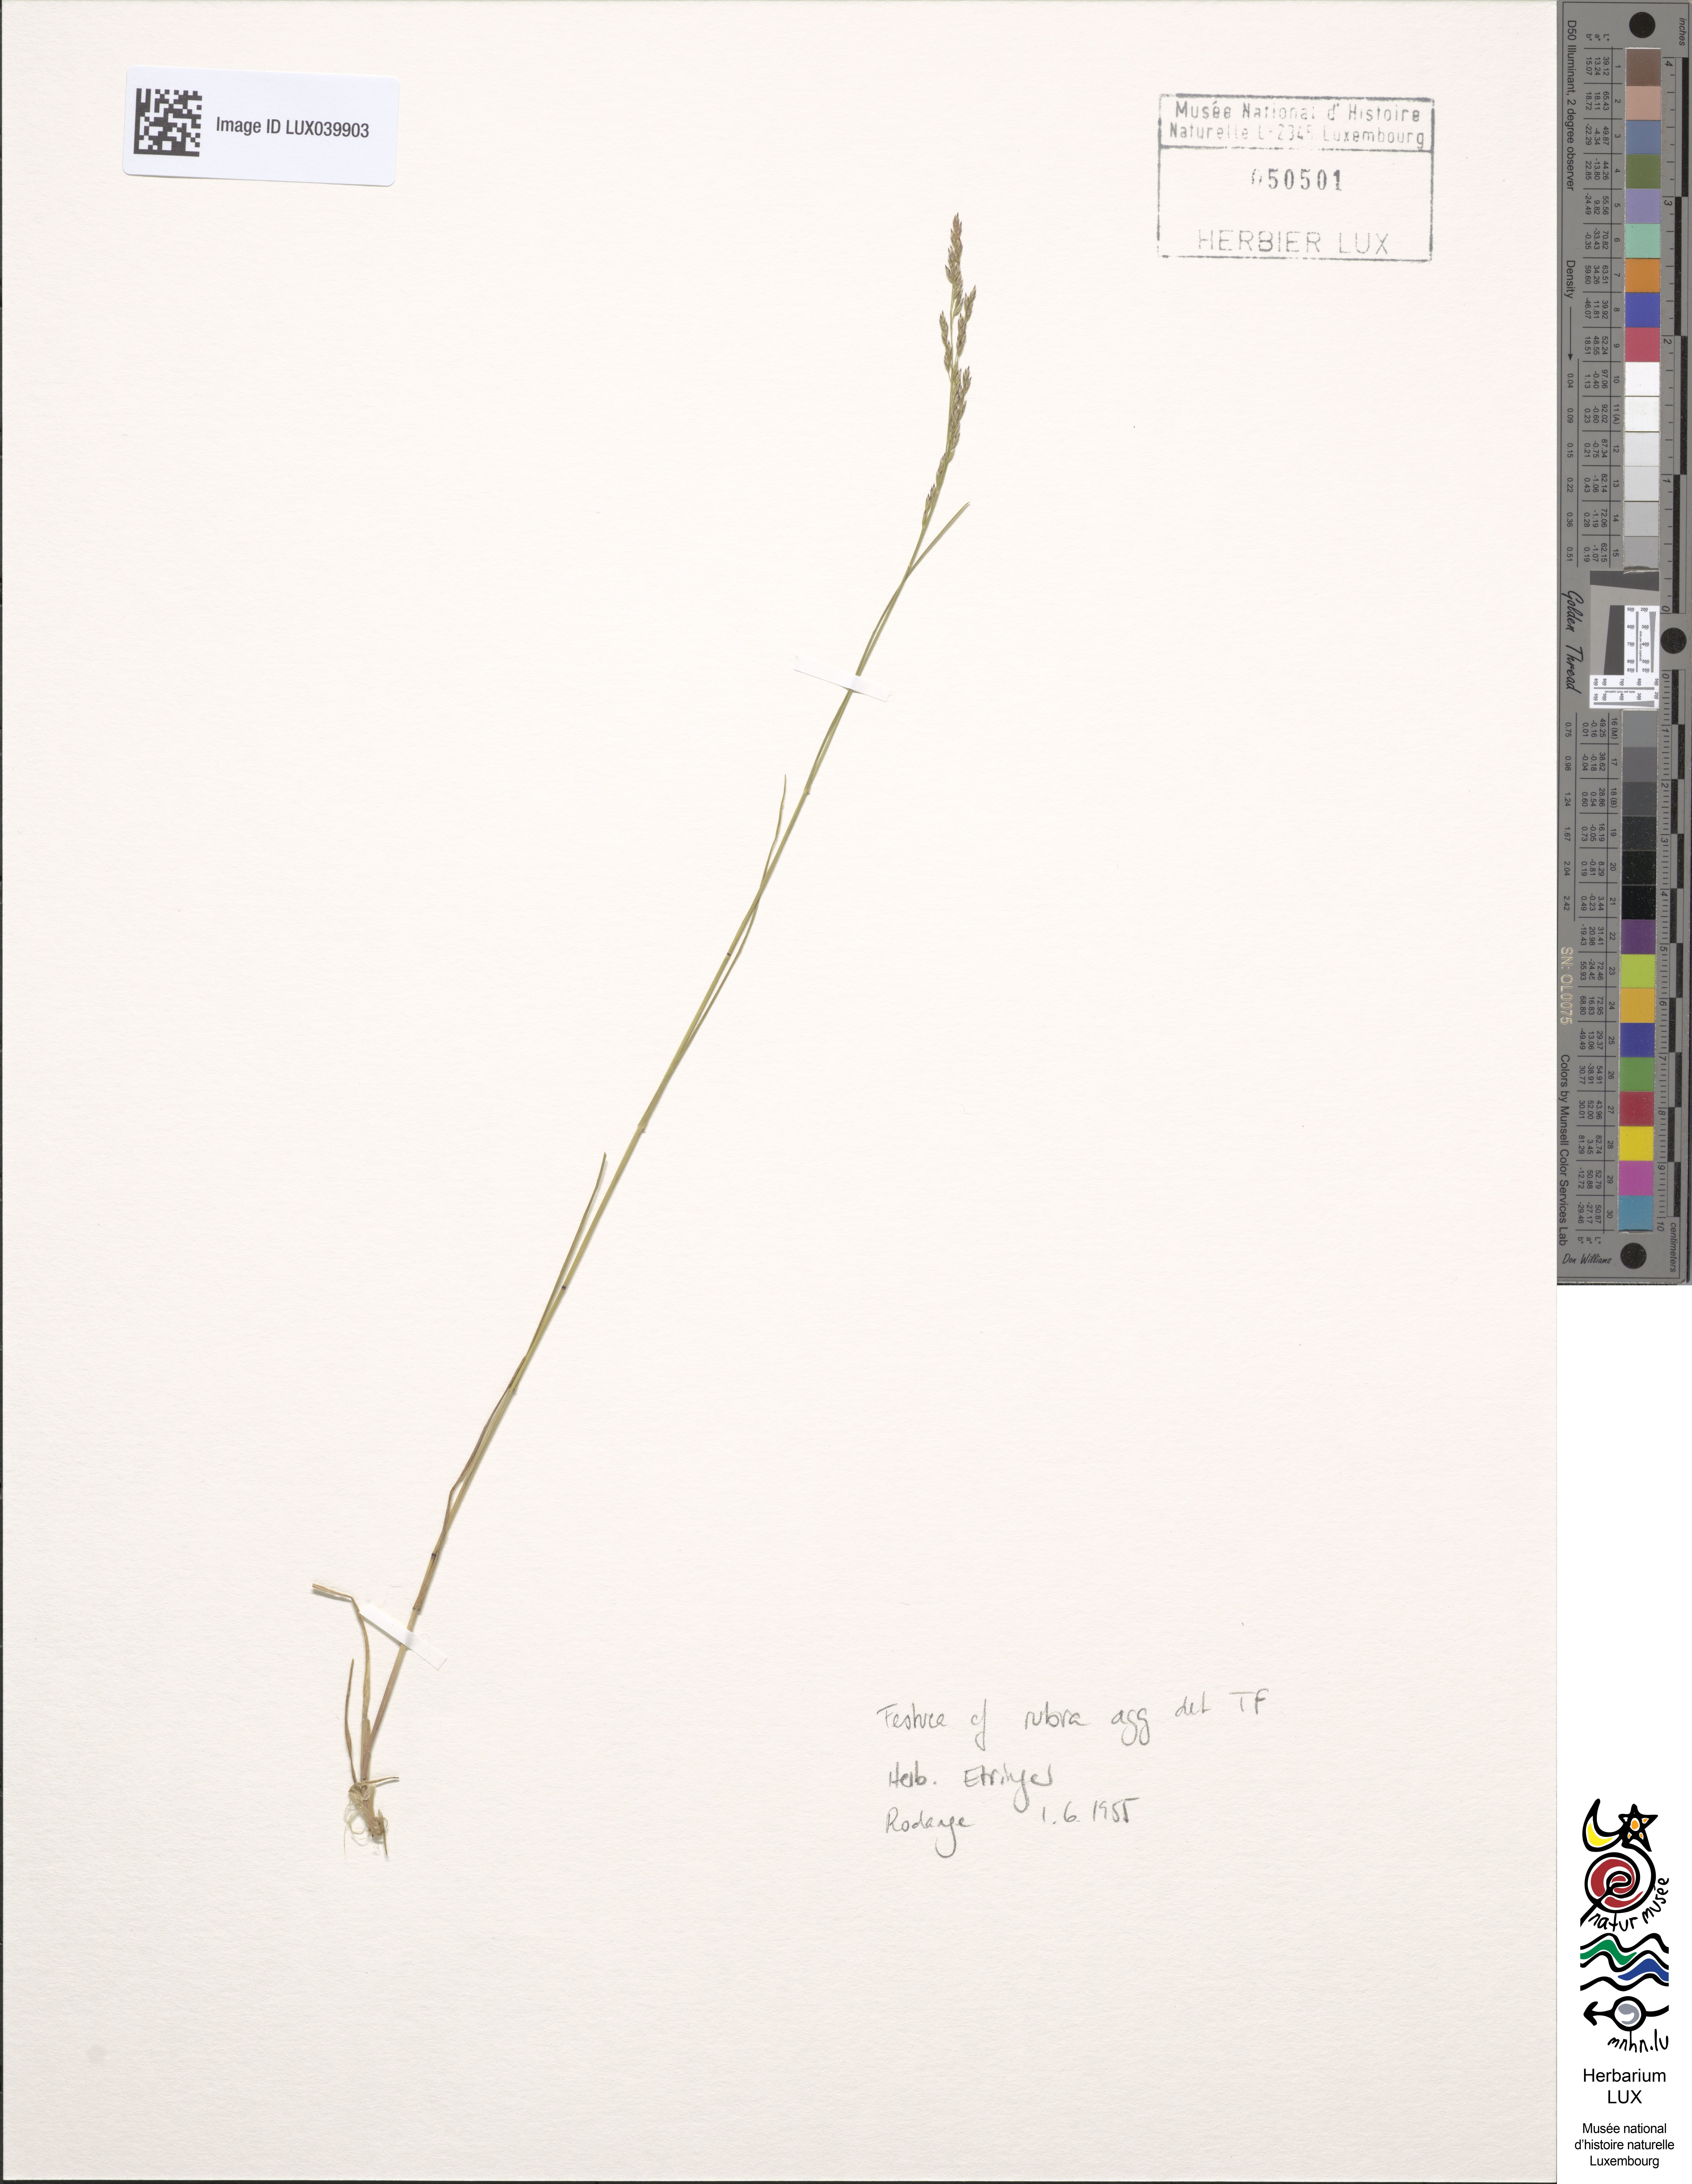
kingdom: Plantae
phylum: Tracheophyta
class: Liliopsida
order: Poales
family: Poaceae
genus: Festuca
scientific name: Festuca rubra
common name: Red fescue
